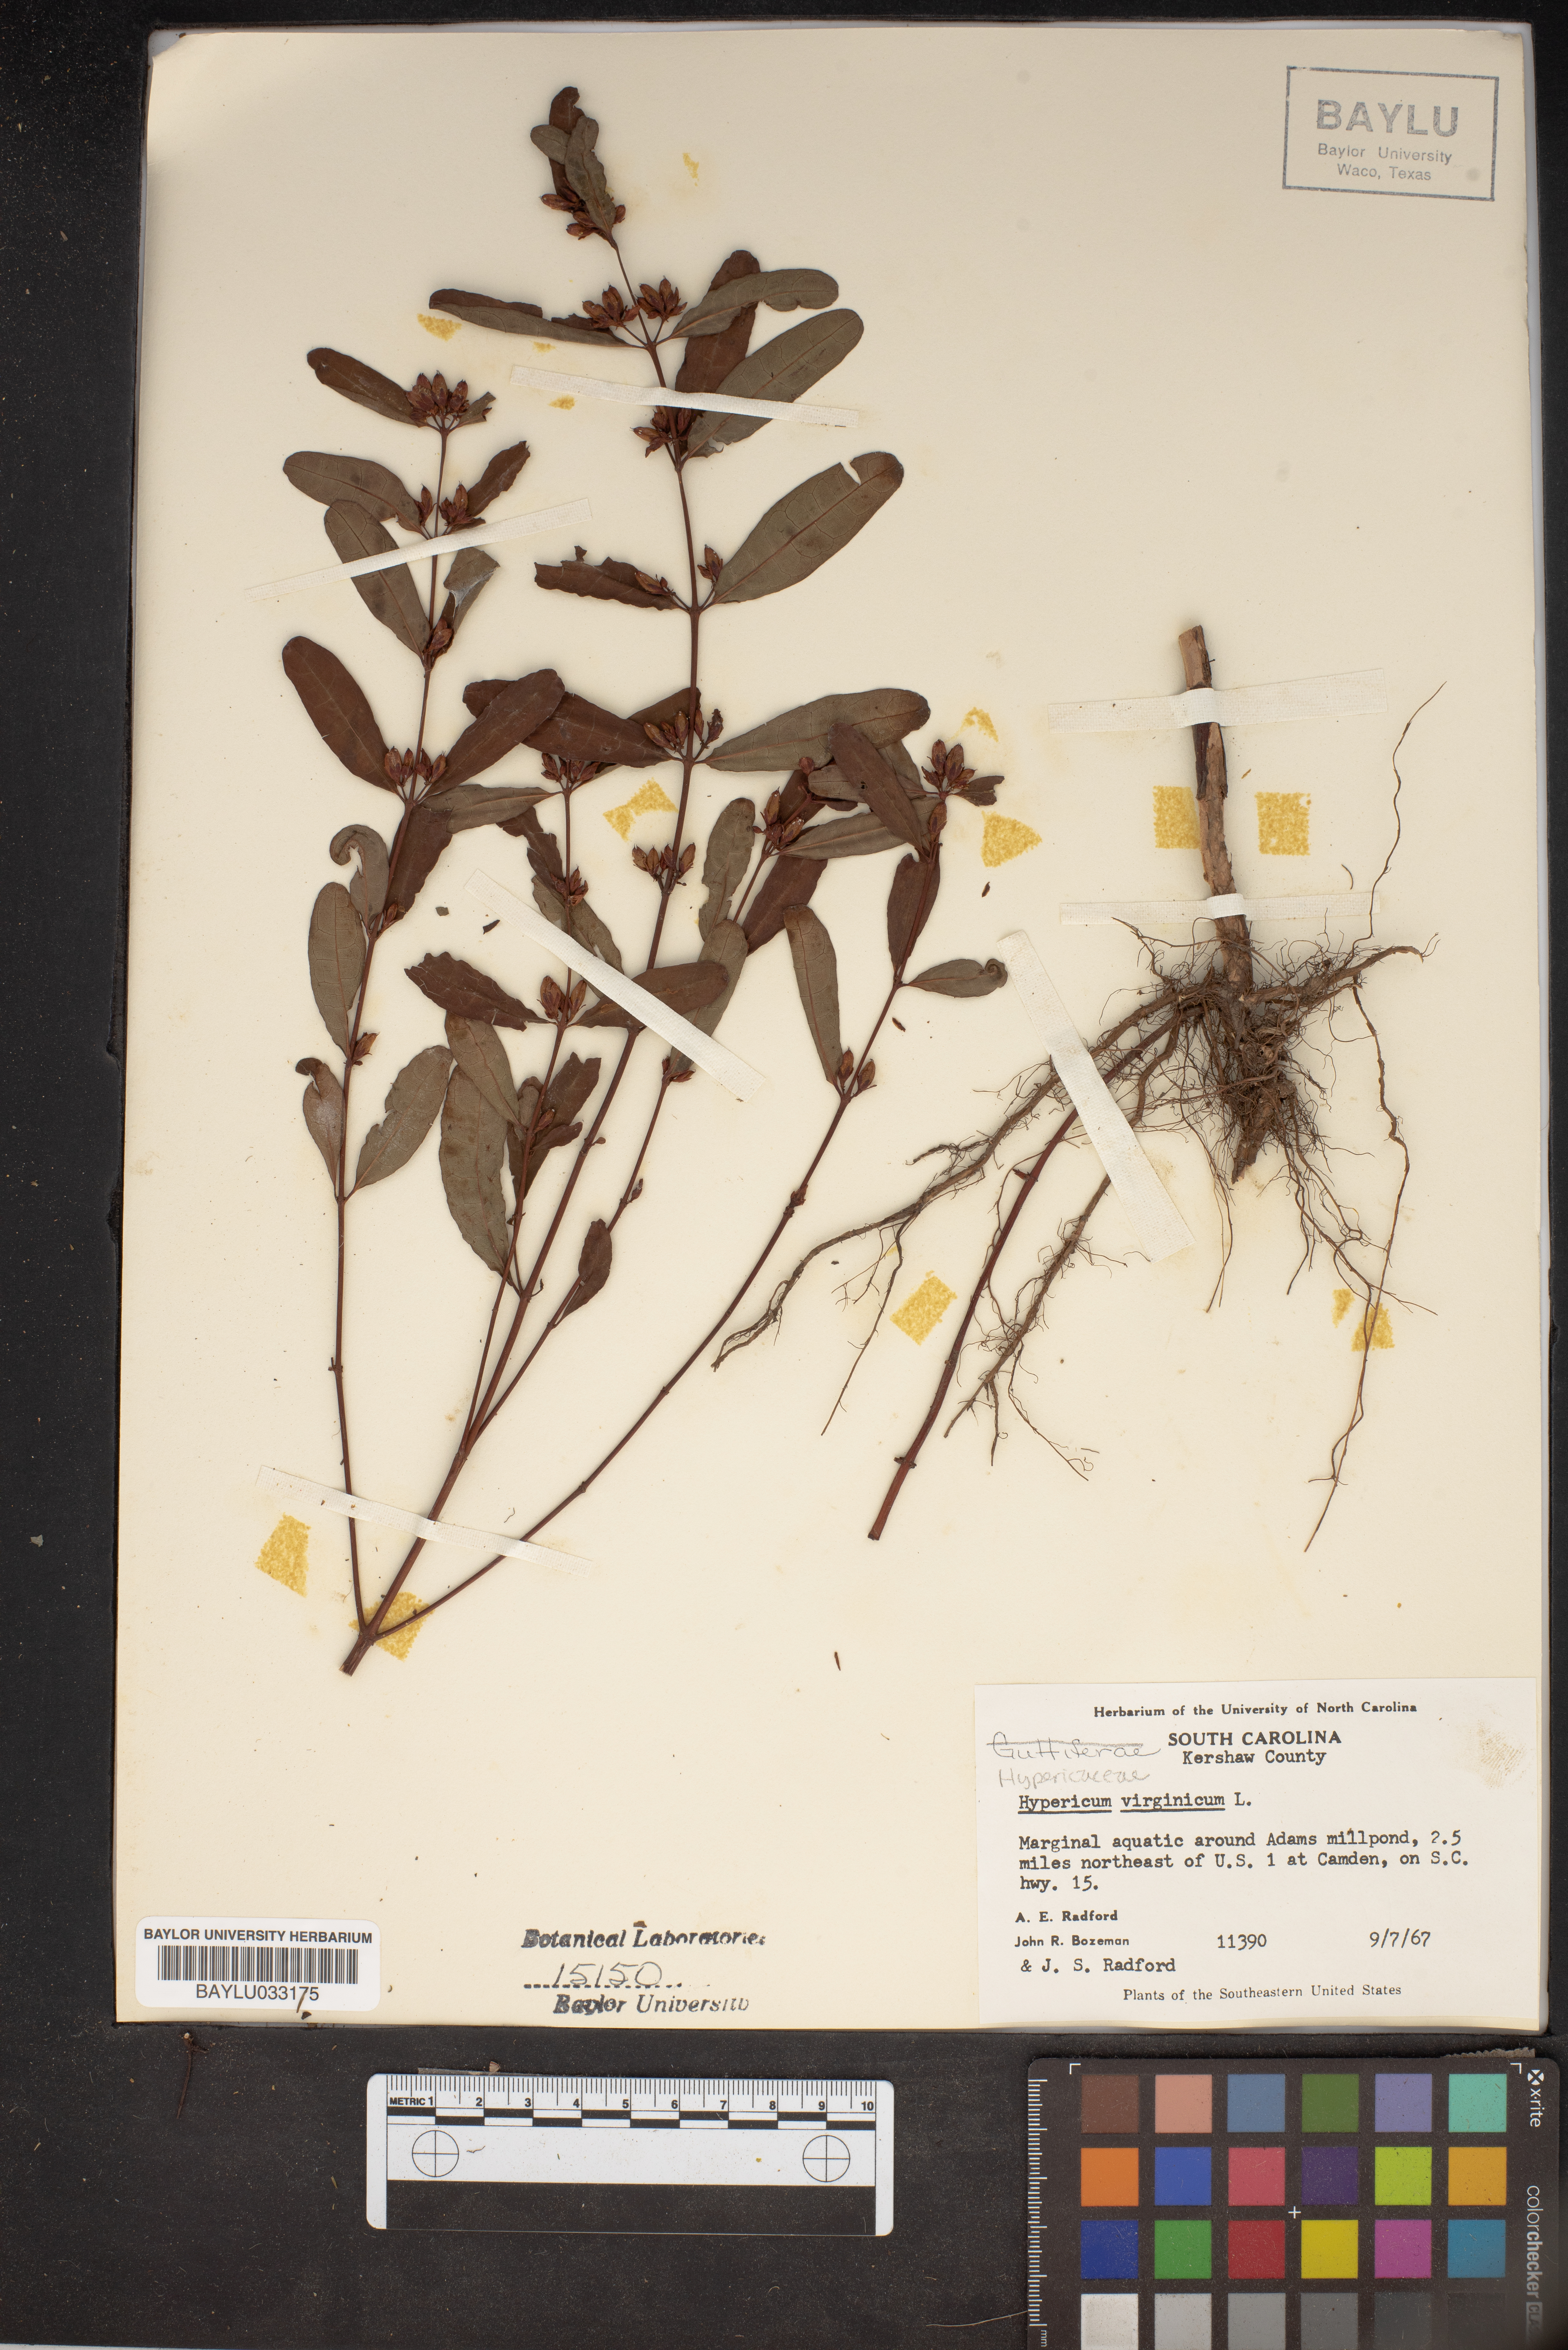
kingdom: Plantae
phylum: Tracheophyta
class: Magnoliopsida
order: Malpighiales
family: Hypericaceae
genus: Triadenum
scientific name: Triadenum virginicum
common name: Marsh st. john's-wort
